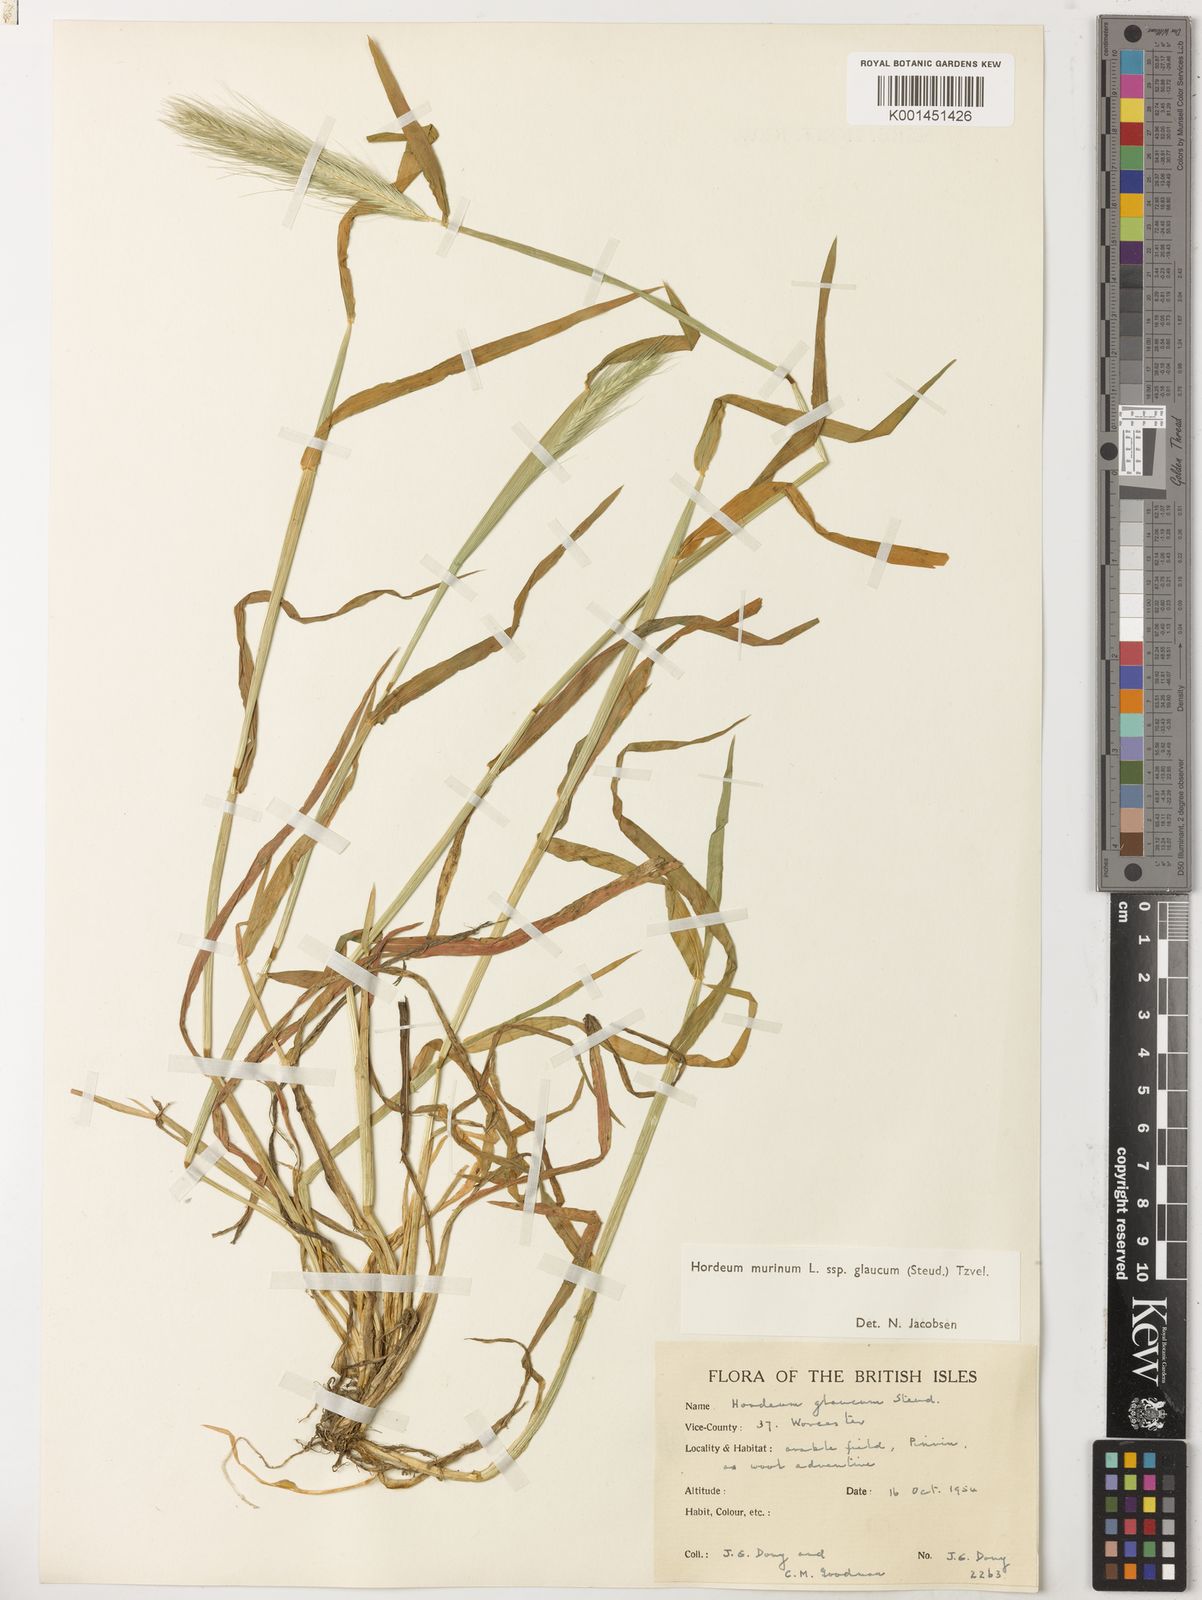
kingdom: Plantae
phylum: Tracheophyta
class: Liliopsida
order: Poales
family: Poaceae
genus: Hordeum
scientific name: Hordeum murinum
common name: Wall barley
